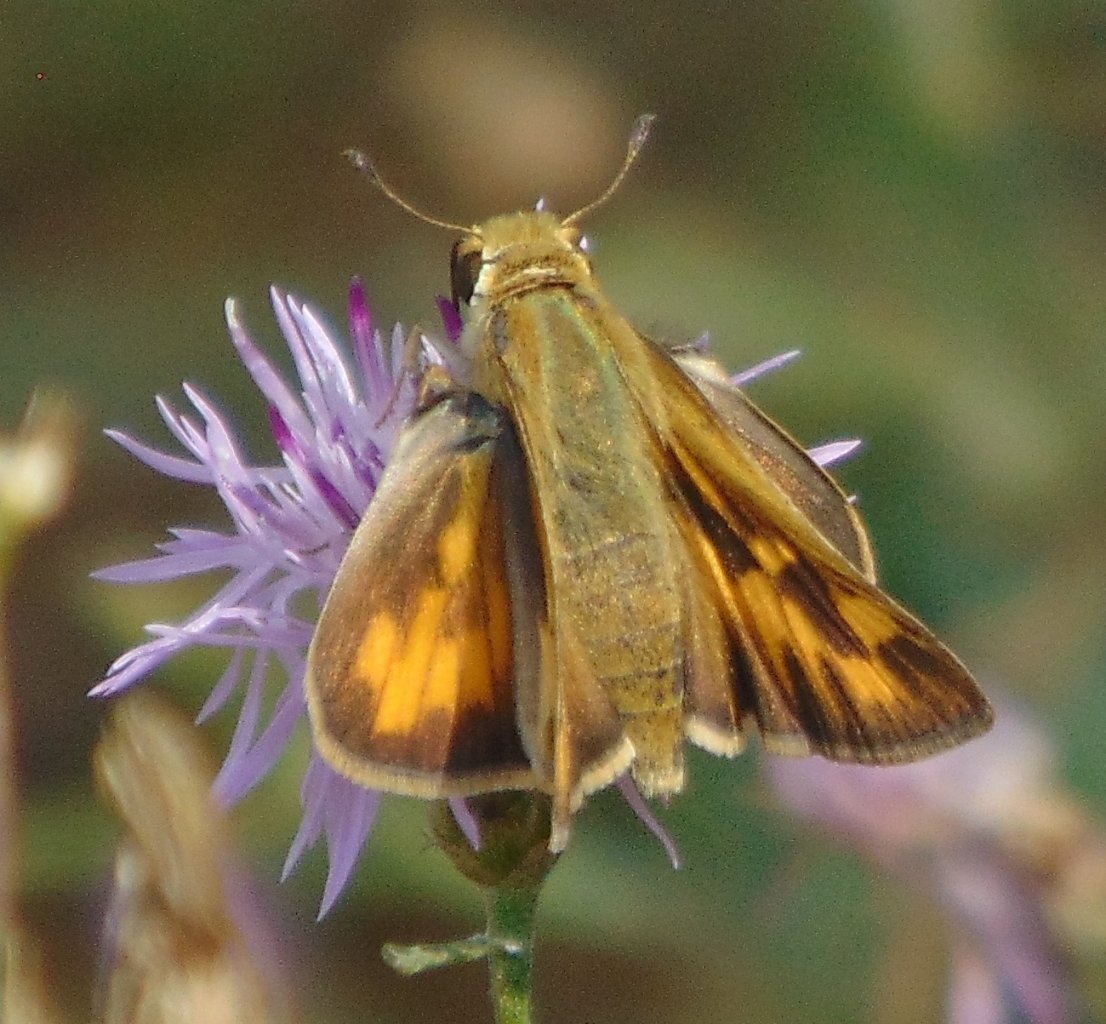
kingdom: Animalia
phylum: Arthropoda
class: Insecta
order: Lepidoptera
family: Hesperiidae
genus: Hylephila
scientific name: Hylephila phyleus
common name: Fiery Skipper
